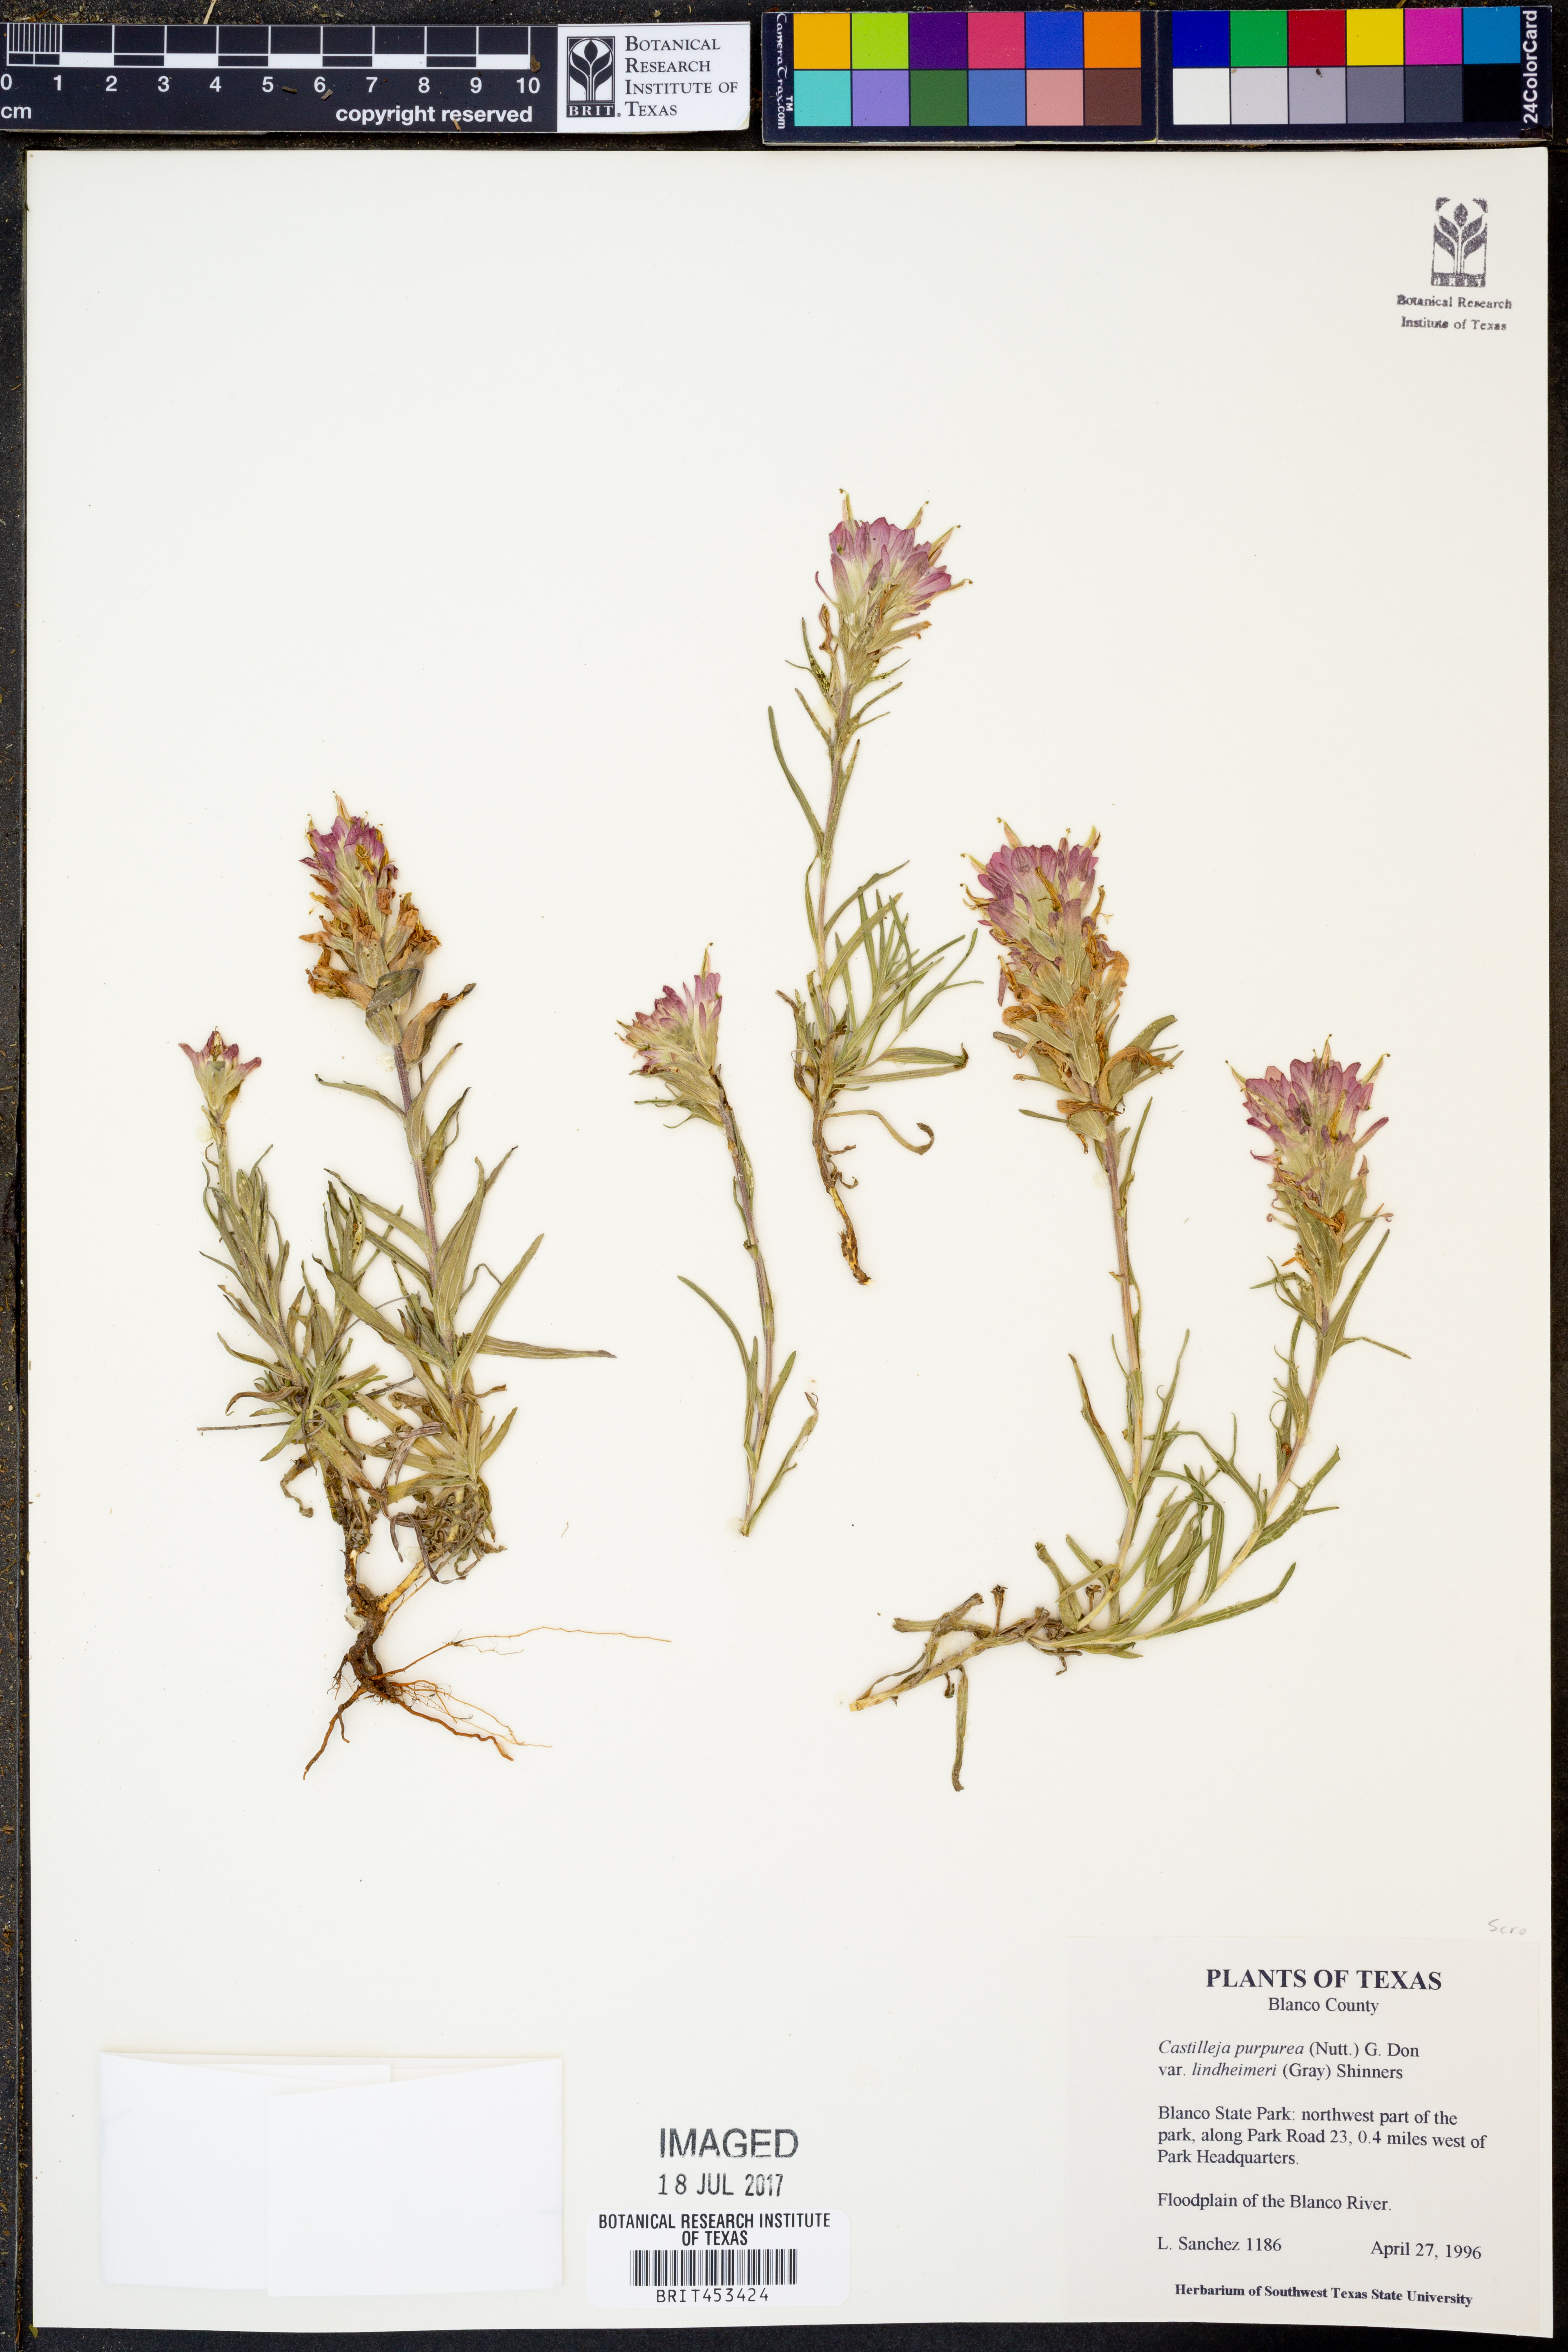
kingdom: Plantae
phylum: Tracheophyta
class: Magnoliopsida
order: Lamiales
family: Orobanchaceae
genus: Castilleja
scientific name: Castilleja lindheimeri
